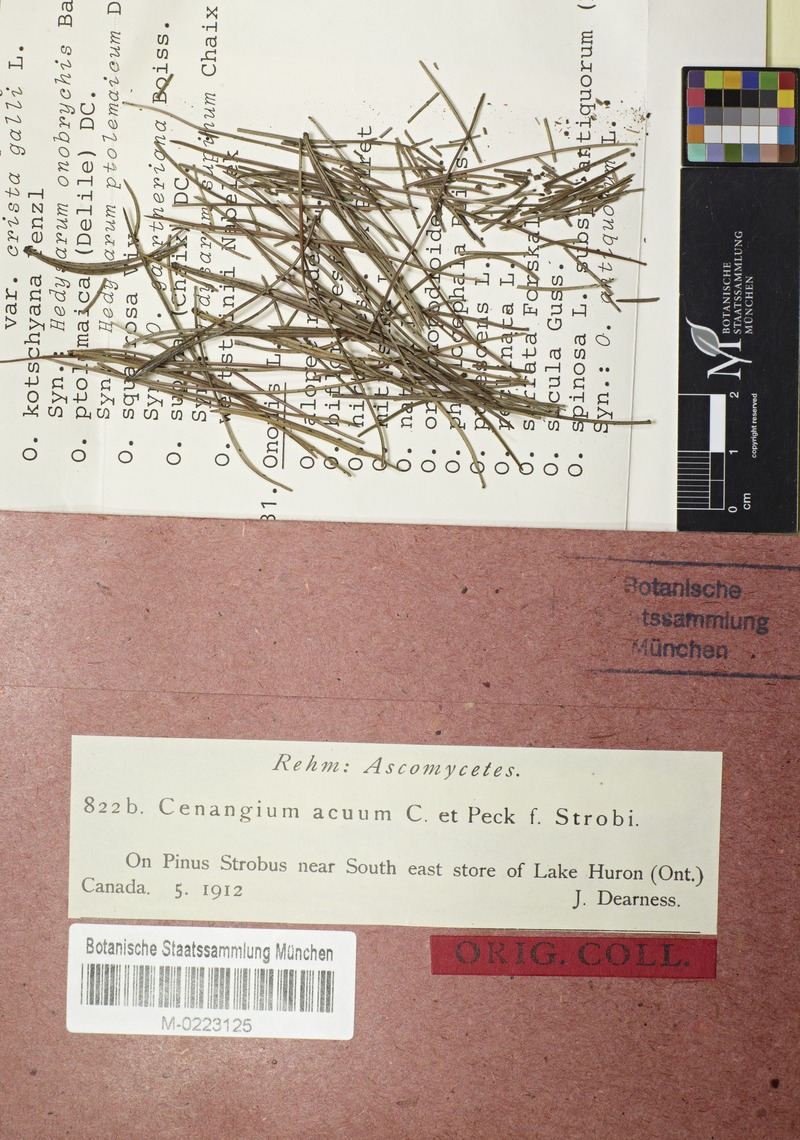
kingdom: Fungi
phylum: Ascomycota
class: Leotiomycetes
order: Helotiales
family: Cenangiaceae
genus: Cenangium
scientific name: Cenangium acuum
